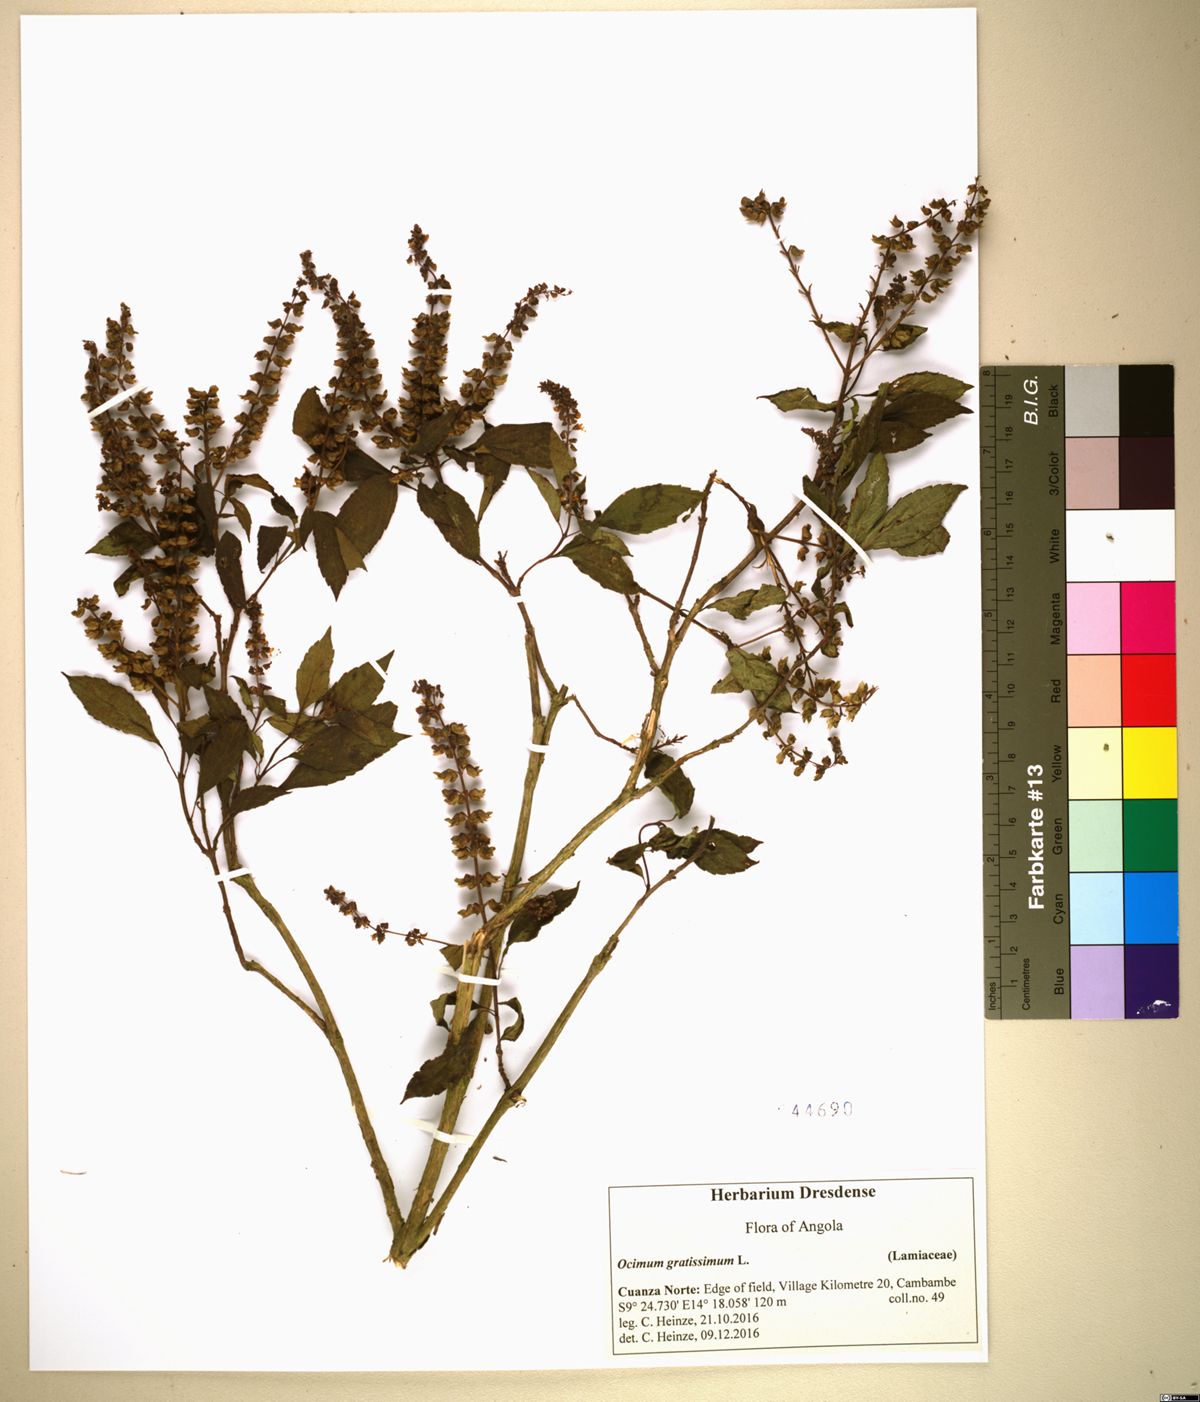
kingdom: Plantae
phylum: Tracheophyta
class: Magnoliopsida
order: Lamiales
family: Lamiaceae
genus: Ocimum
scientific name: Ocimum gratissimum
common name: African basil
